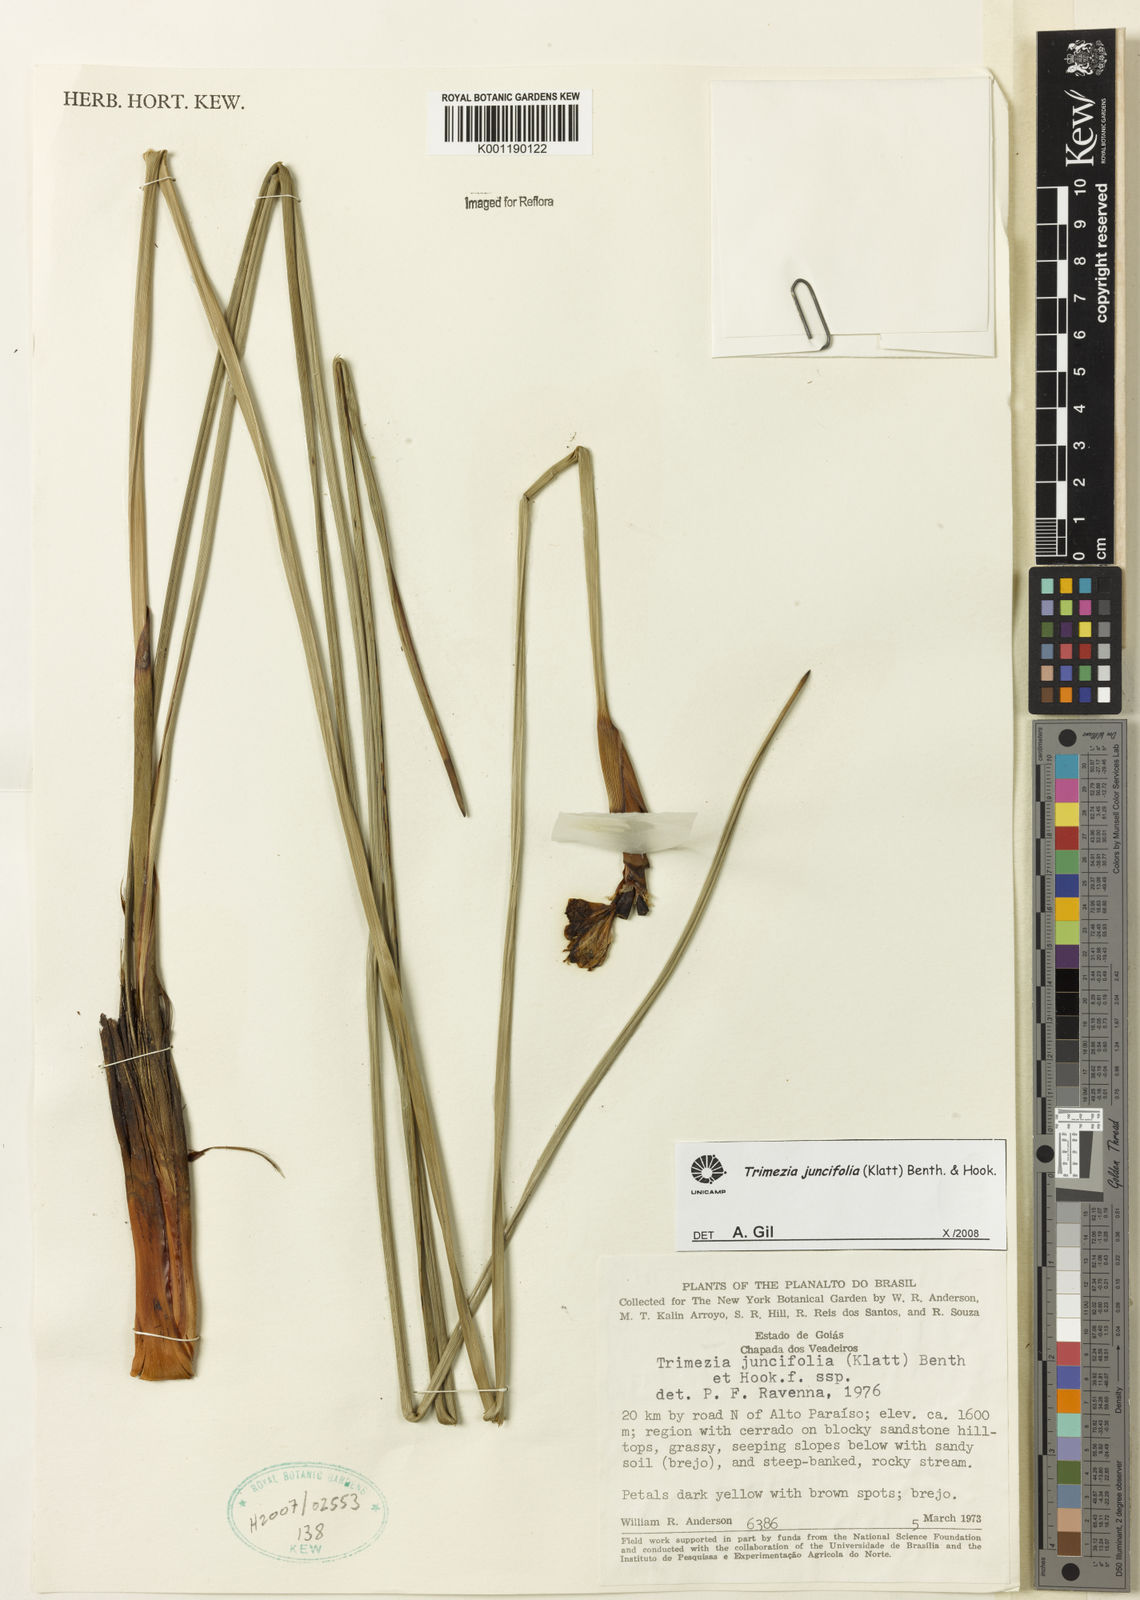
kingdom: Plantae
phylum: Tracheophyta
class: Liliopsida
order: Asparagales
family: Iridaceae
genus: Trimezia
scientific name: Trimezia juncifolia
